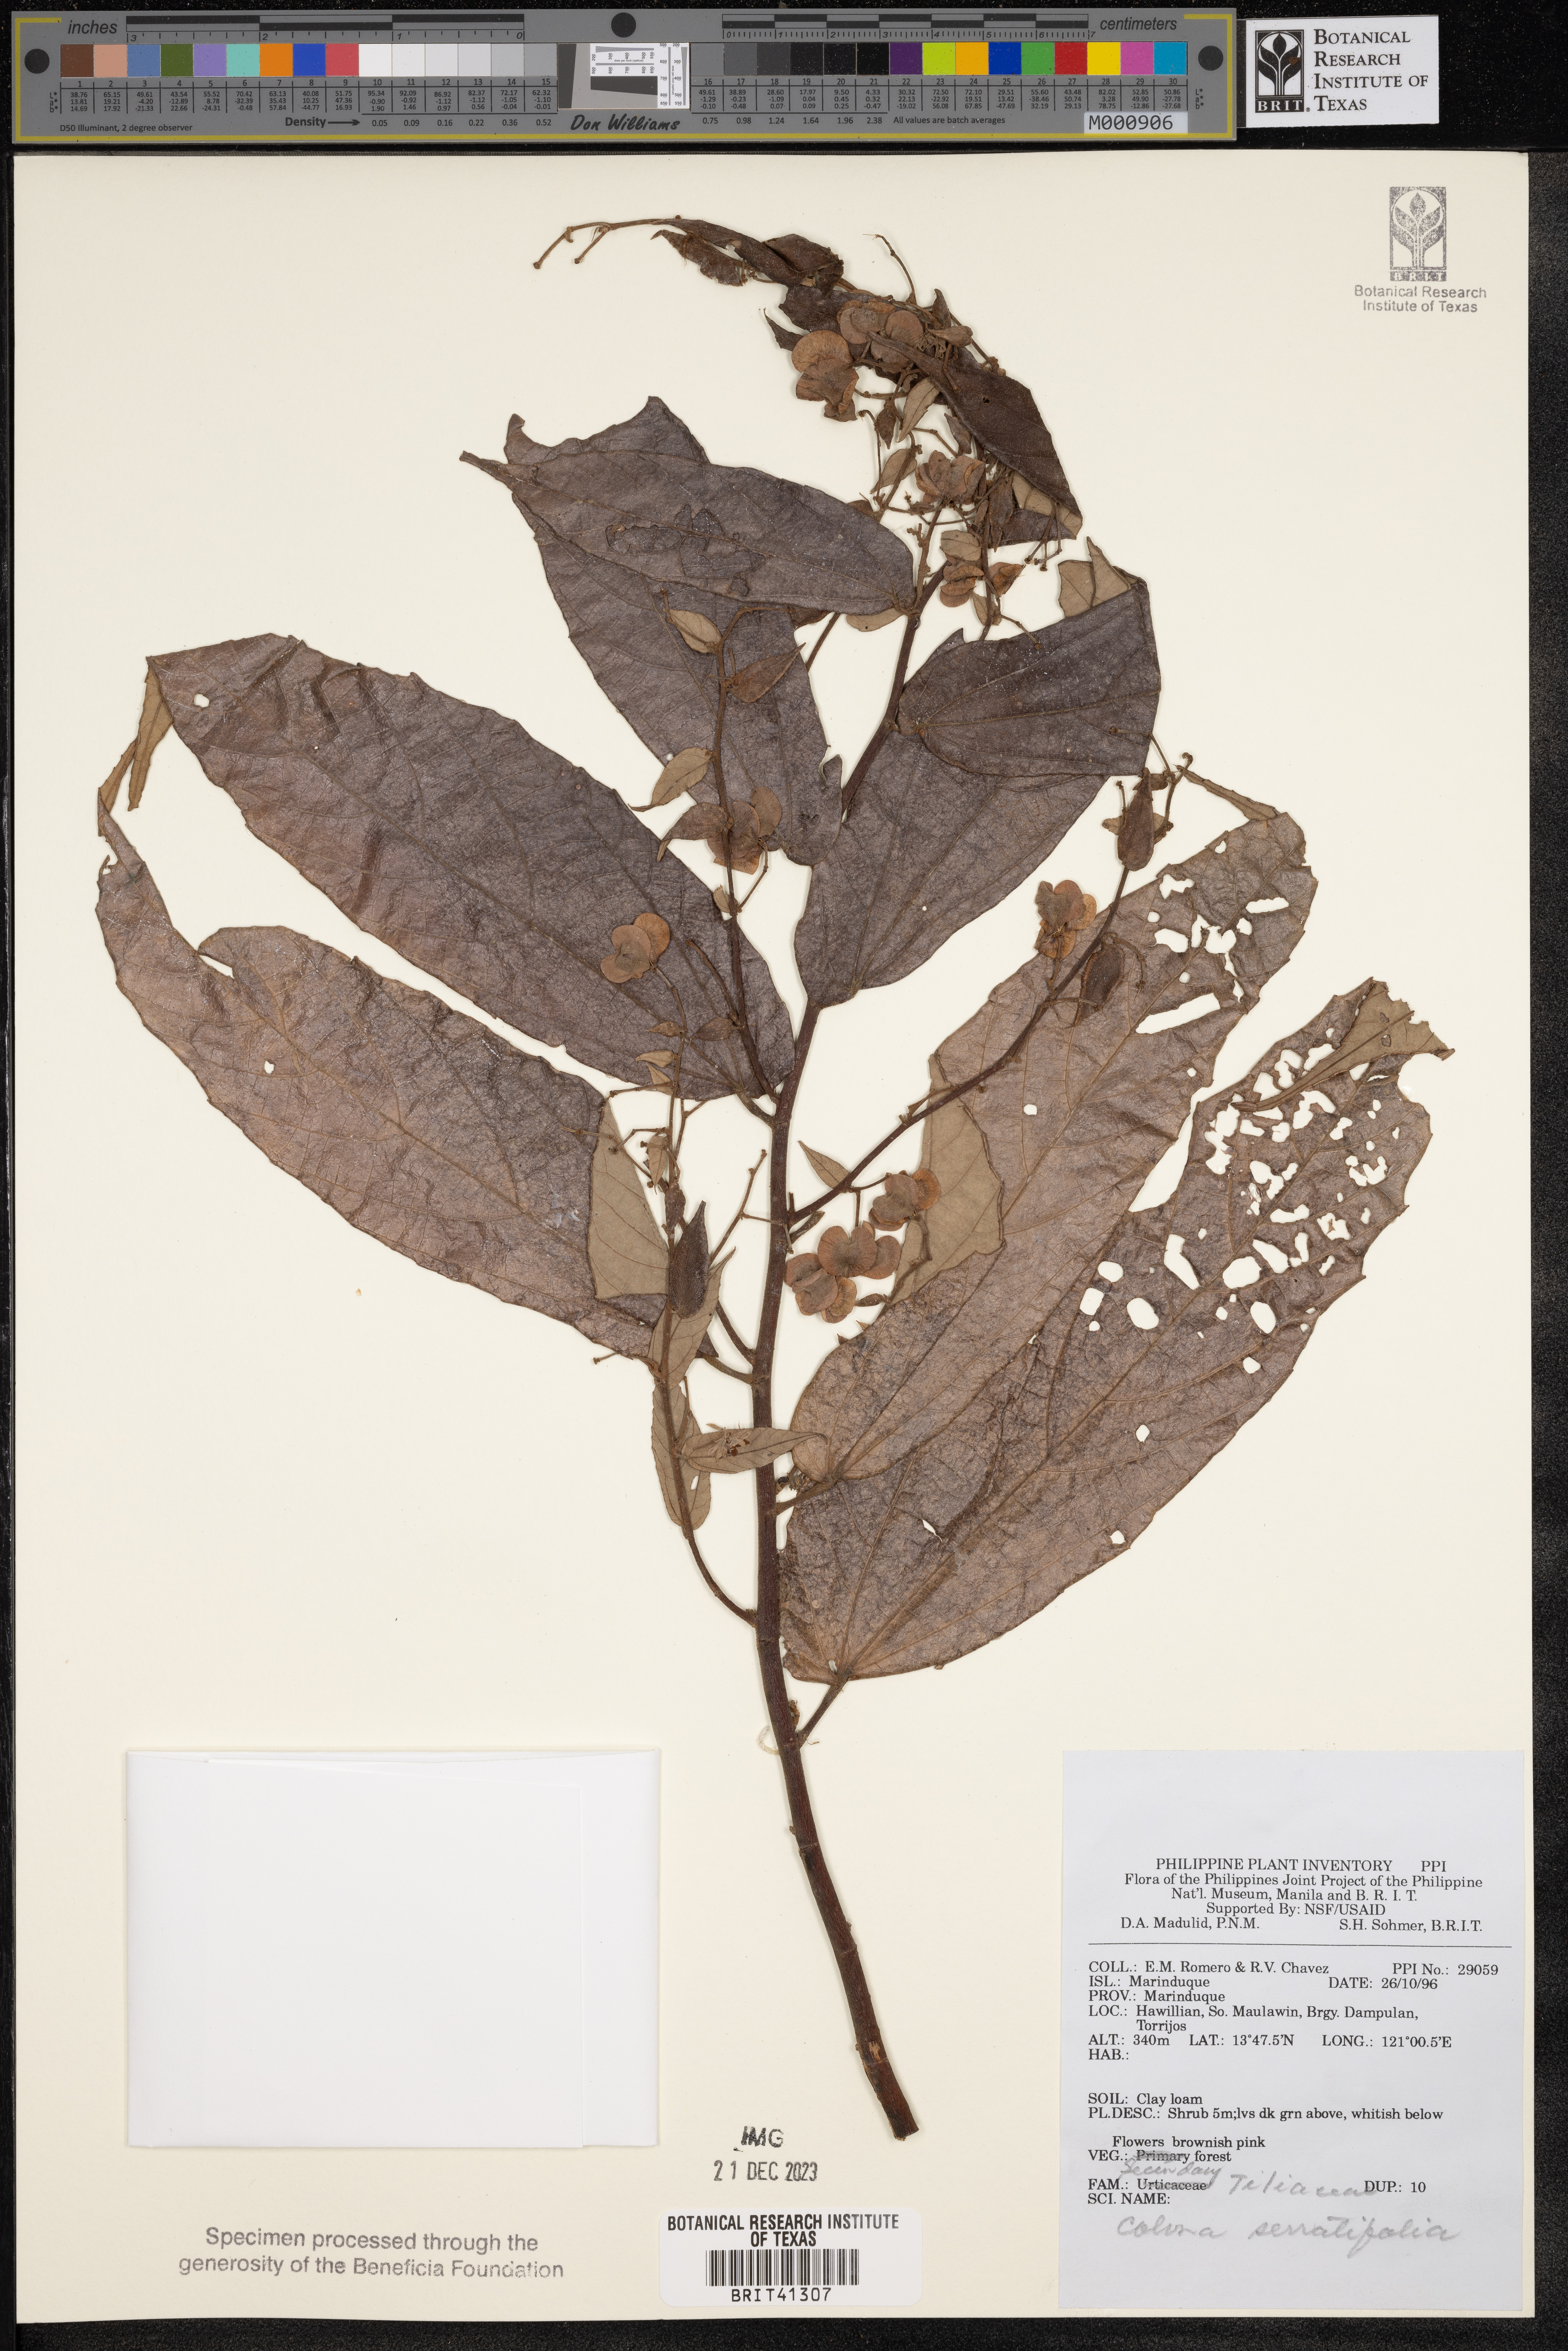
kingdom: Plantae
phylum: Tracheophyta
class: Magnoliopsida
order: Malvales
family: Malvaceae
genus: Colona
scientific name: Colona serratifolia
